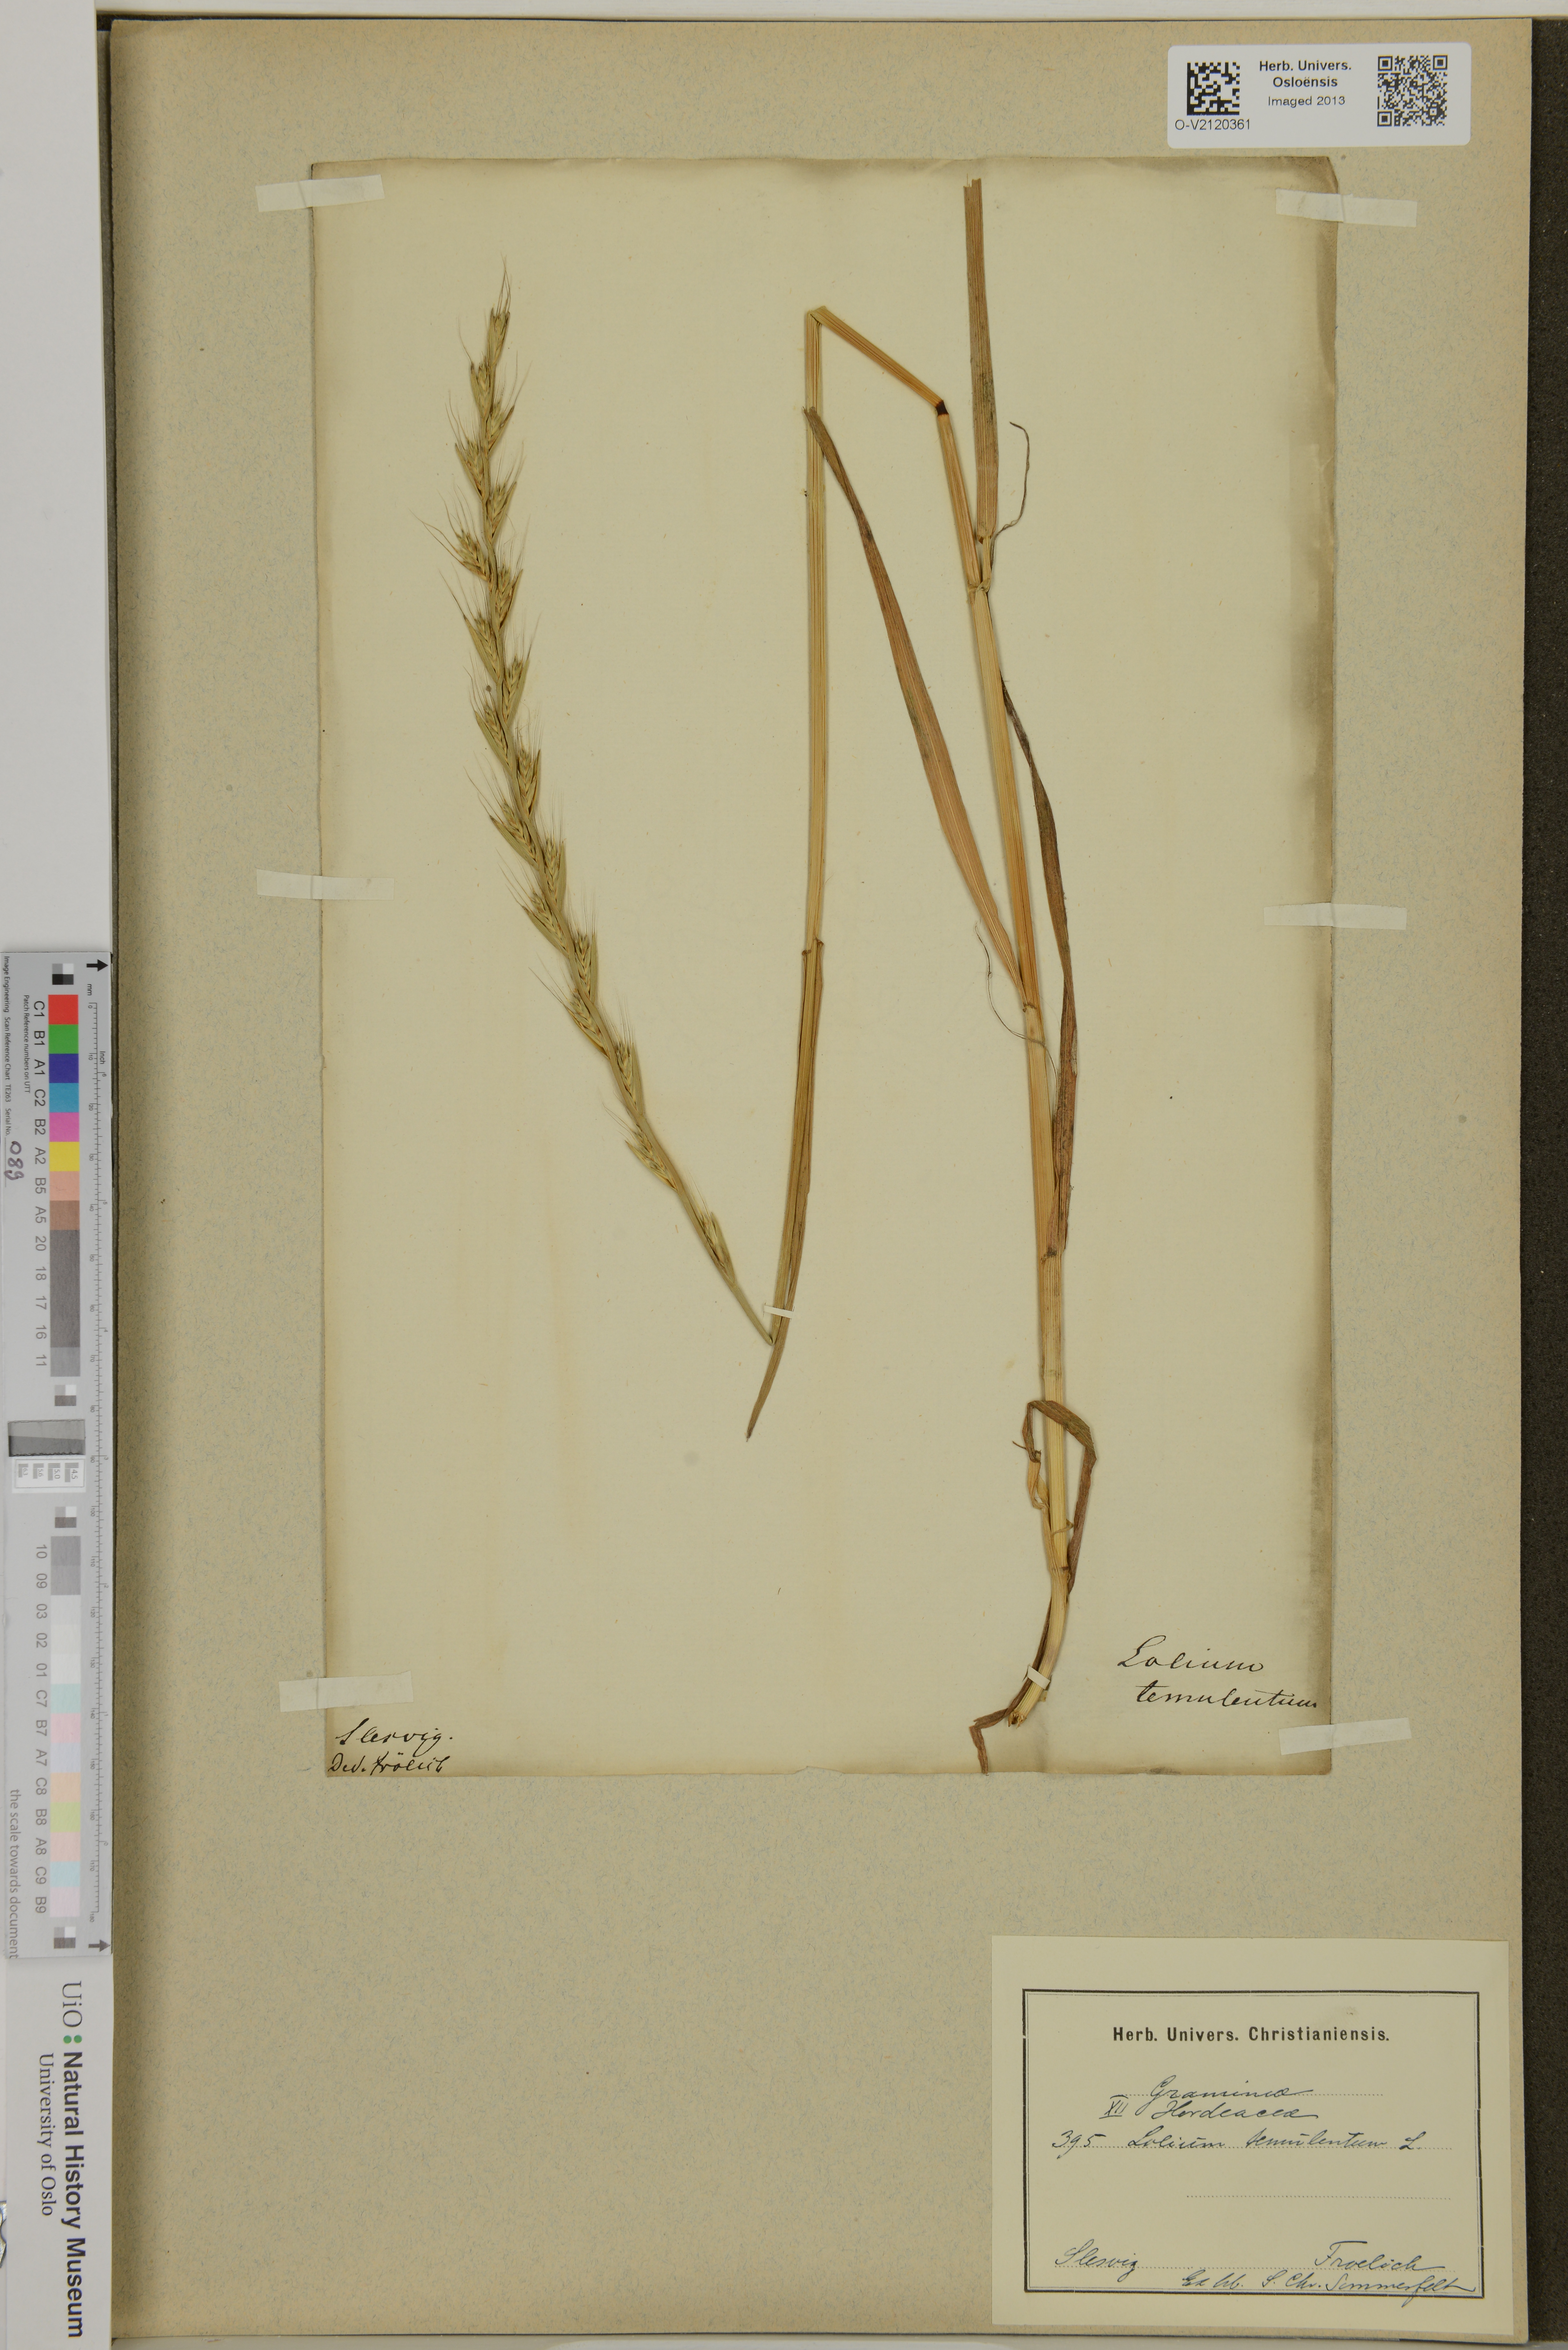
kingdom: Plantae
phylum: Tracheophyta
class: Liliopsida
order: Poales
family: Poaceae
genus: Lolium
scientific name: Lolium temulentum
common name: Darnel
